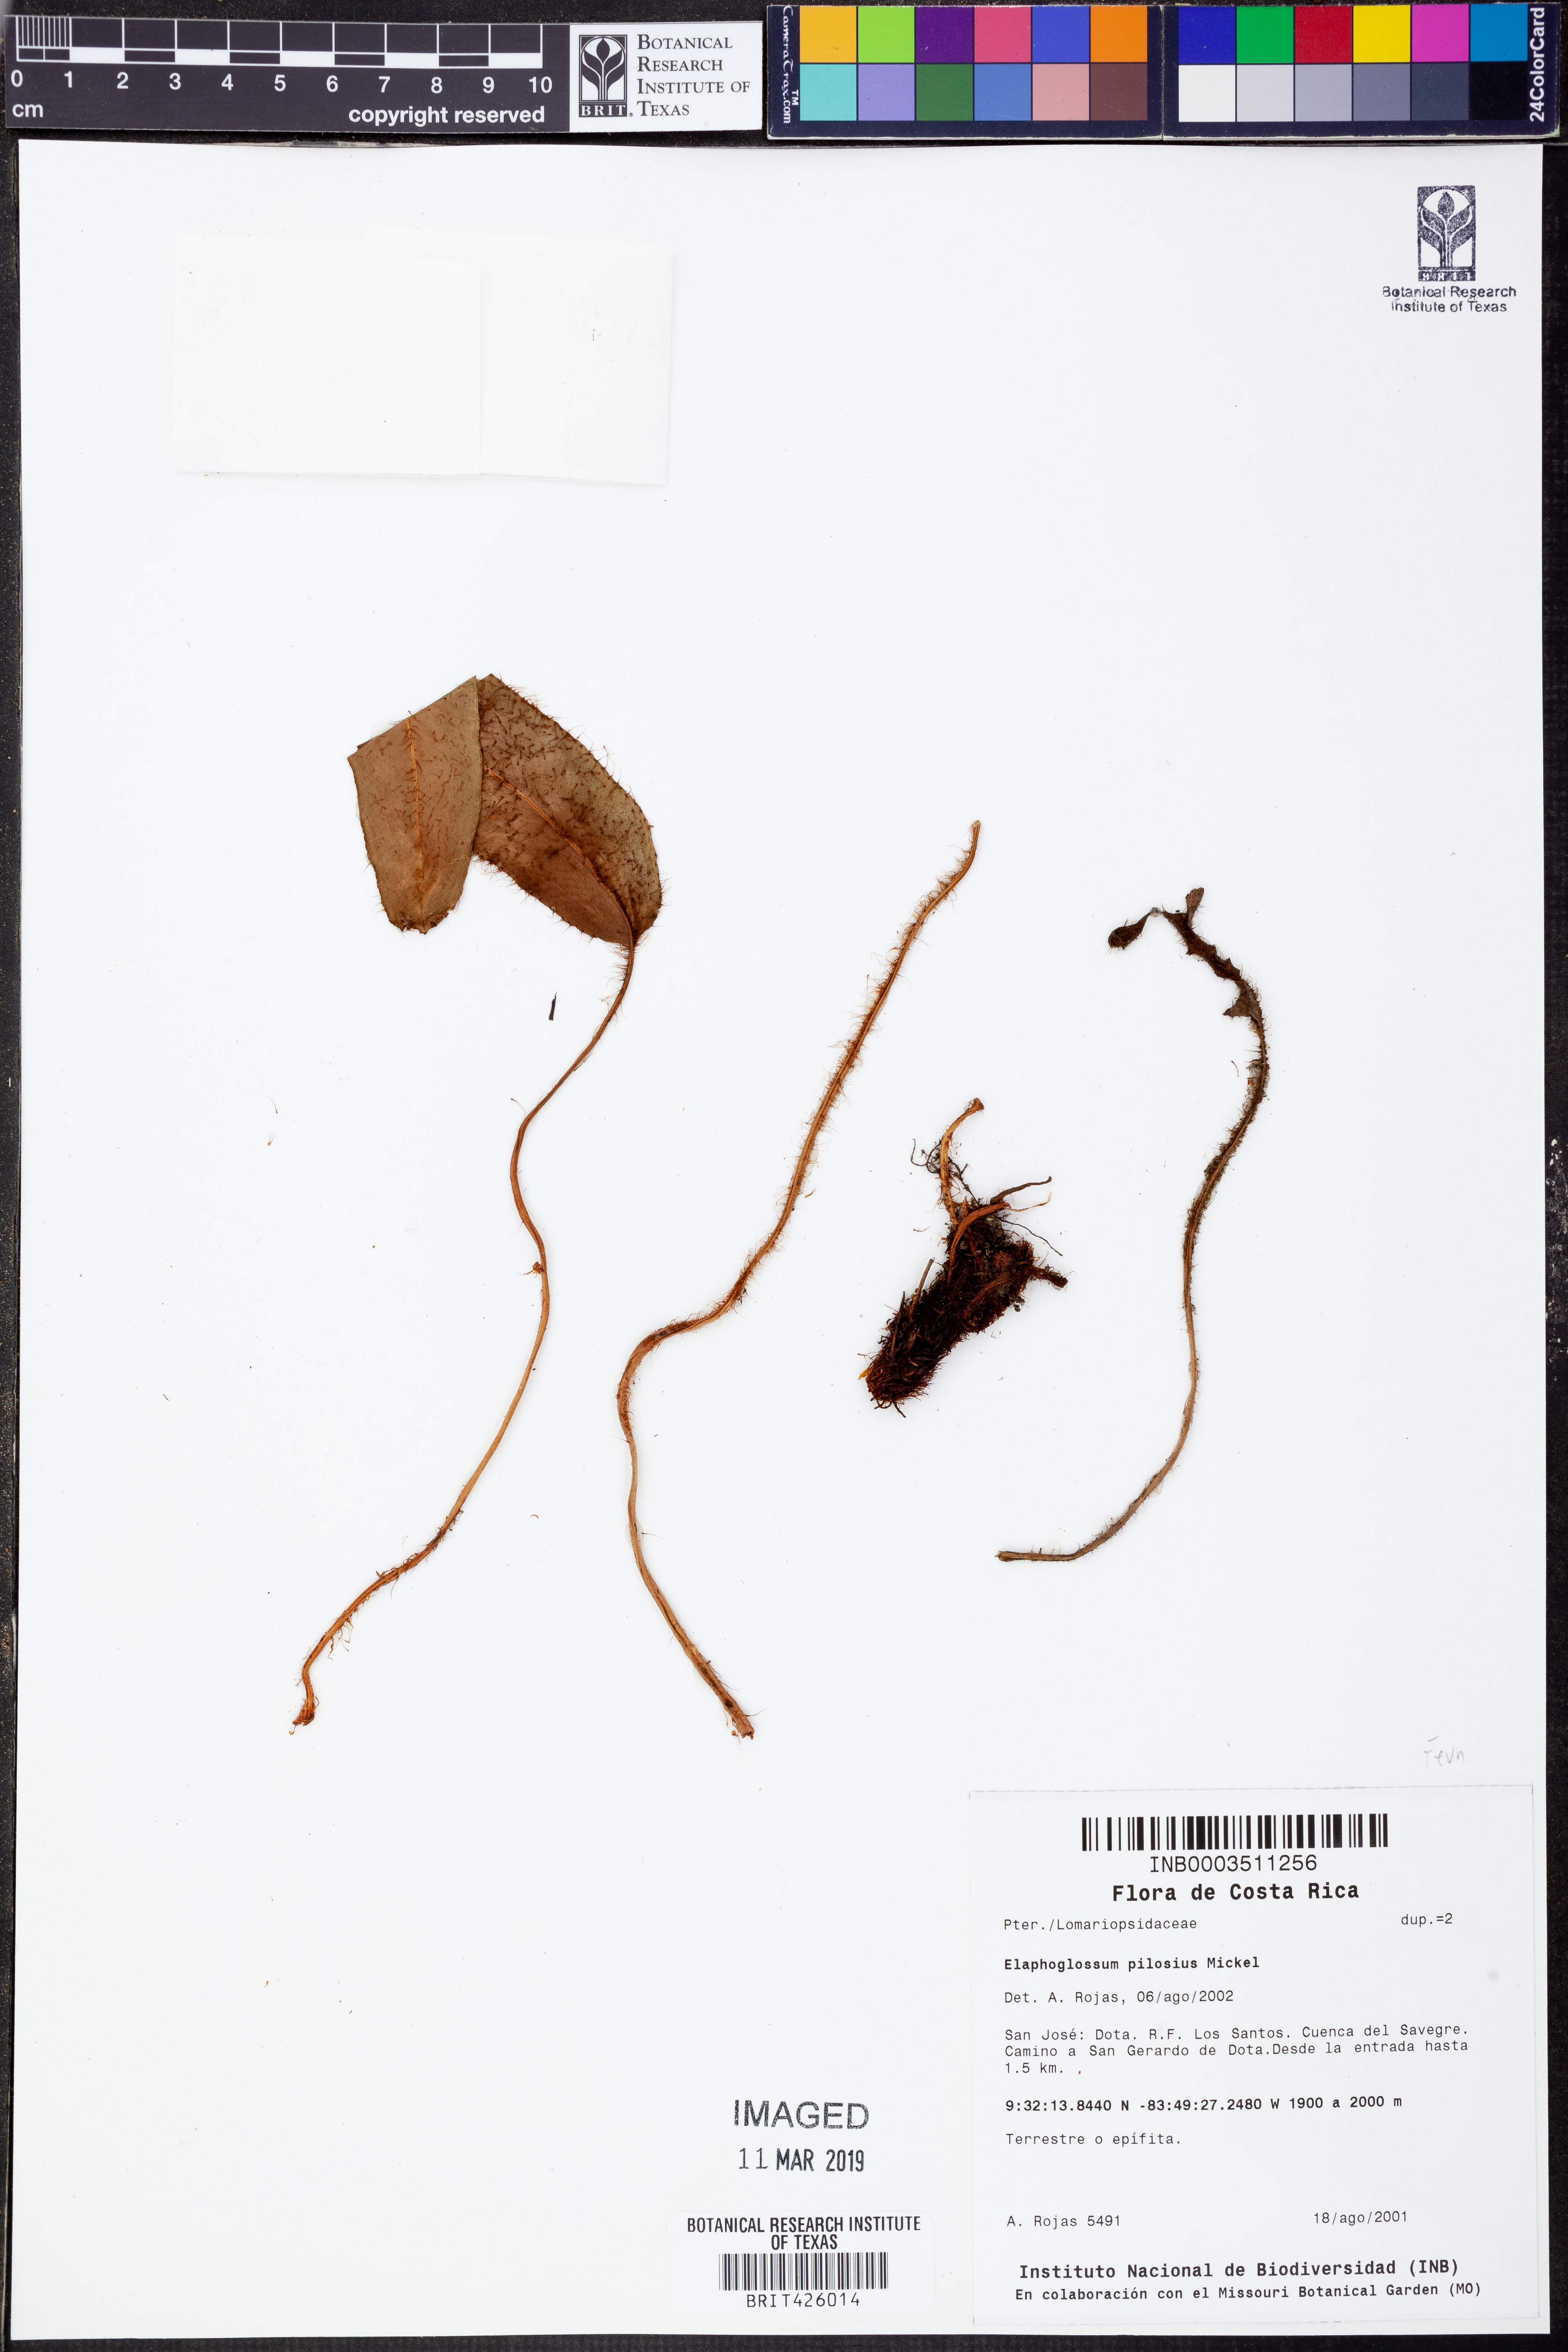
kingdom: Plantae
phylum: Tracheophyta
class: Polypodiopsida
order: Polypodiales
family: Dryopteridaceae
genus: Elaphoglossum
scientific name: Elaphoglossum pilosius
